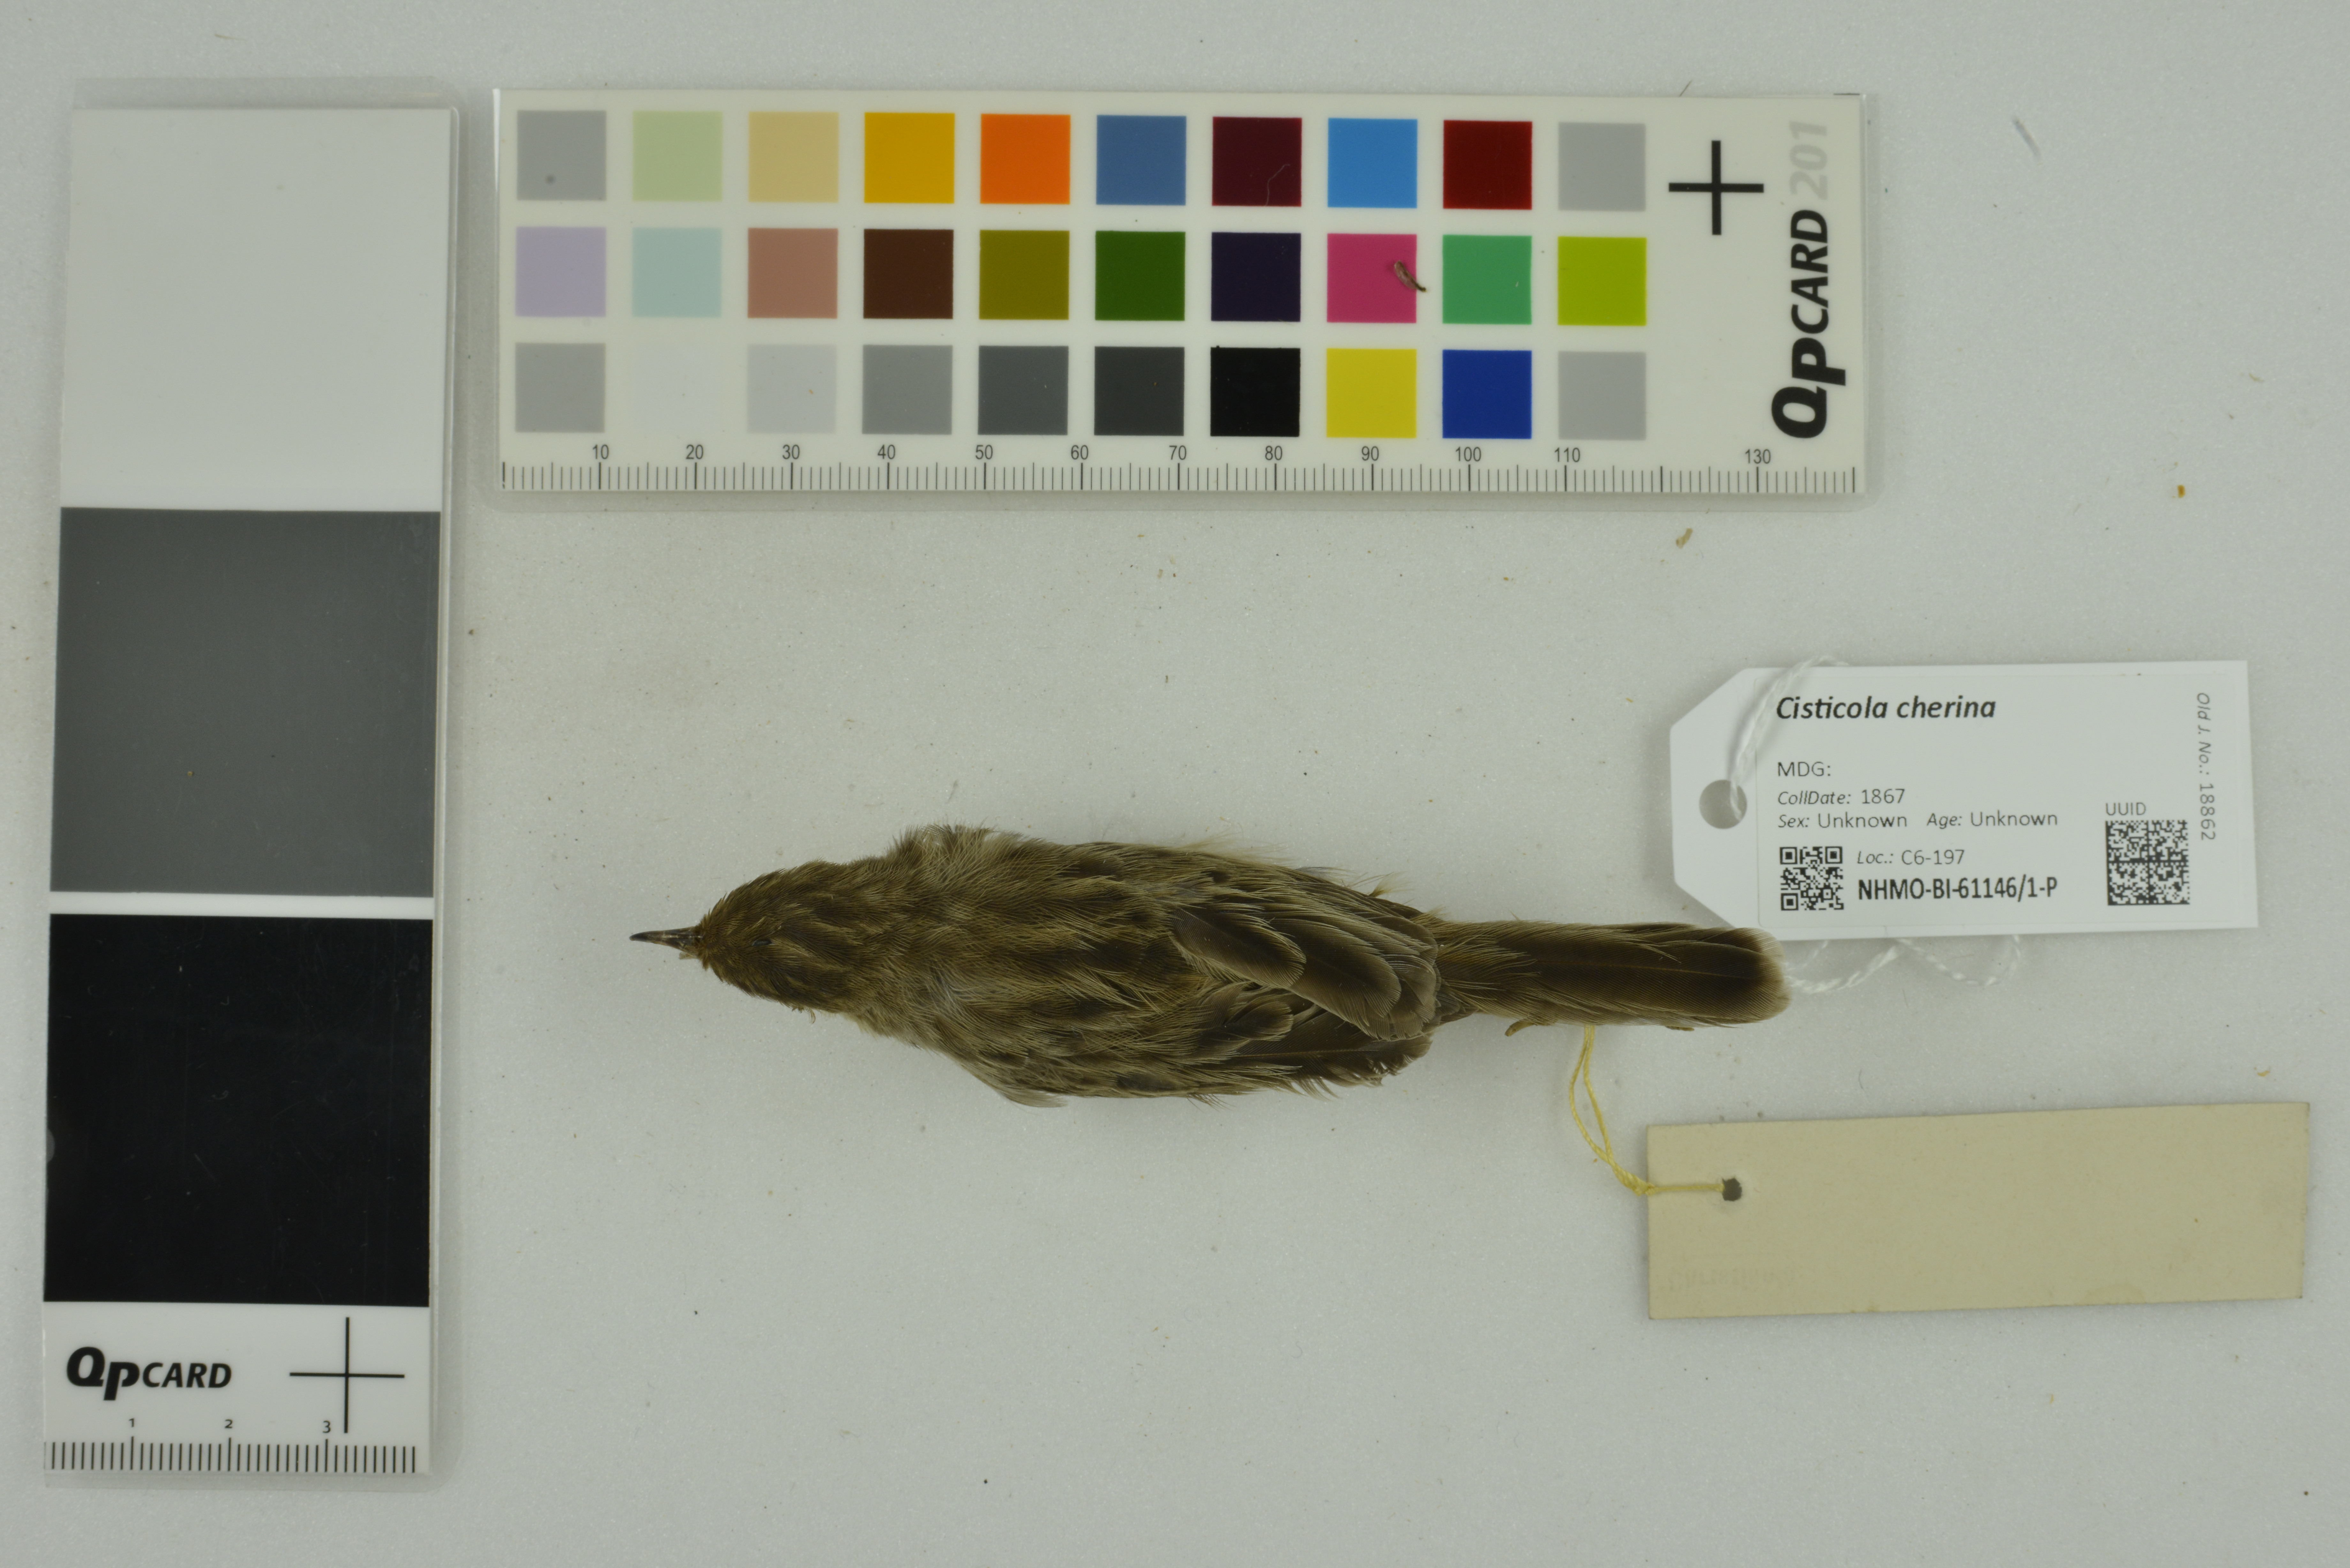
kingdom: Animalia
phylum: Chordata
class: Aves
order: Passeriformes
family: Cisticolidae
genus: Cisticola
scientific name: Cisticola cherina
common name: Madagascar cisticola
